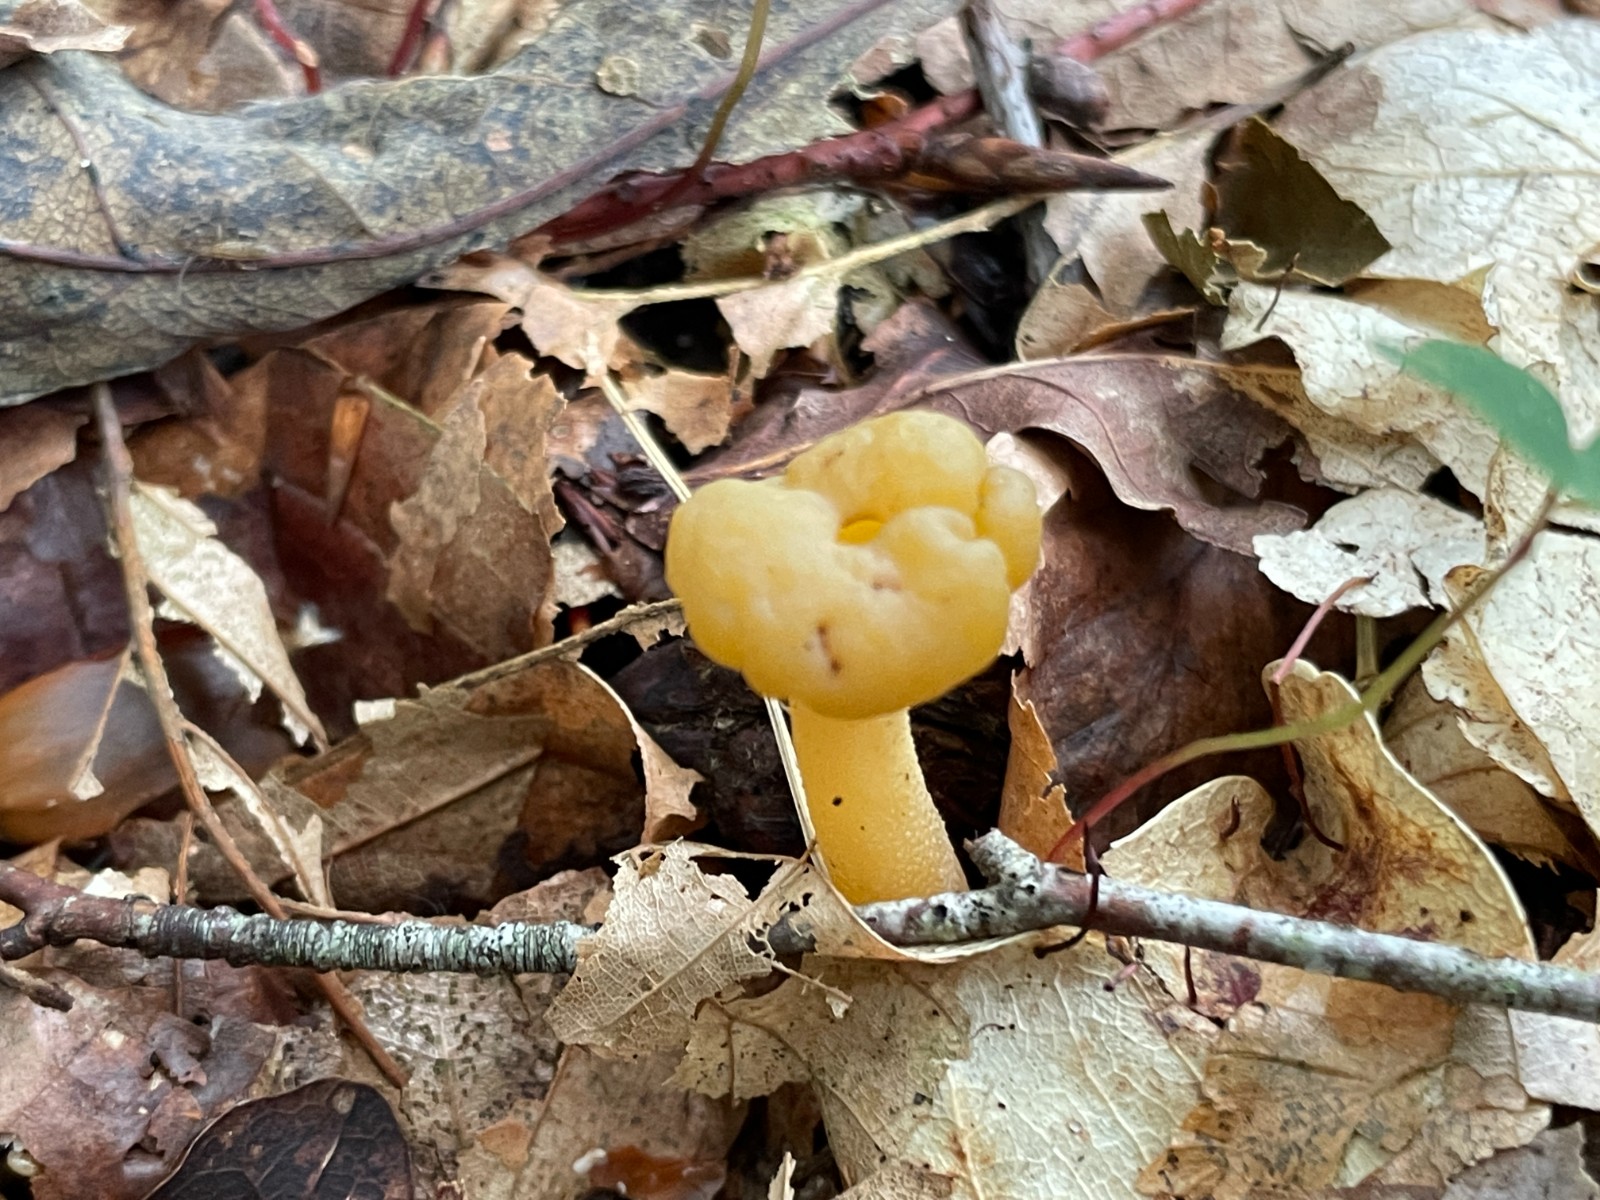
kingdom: Fungi
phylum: Ascomycota
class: Leotiomycetes
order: Leotiales
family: Leotiaceae
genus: Leotia
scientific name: Leotia lubrica
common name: ravsvamp
